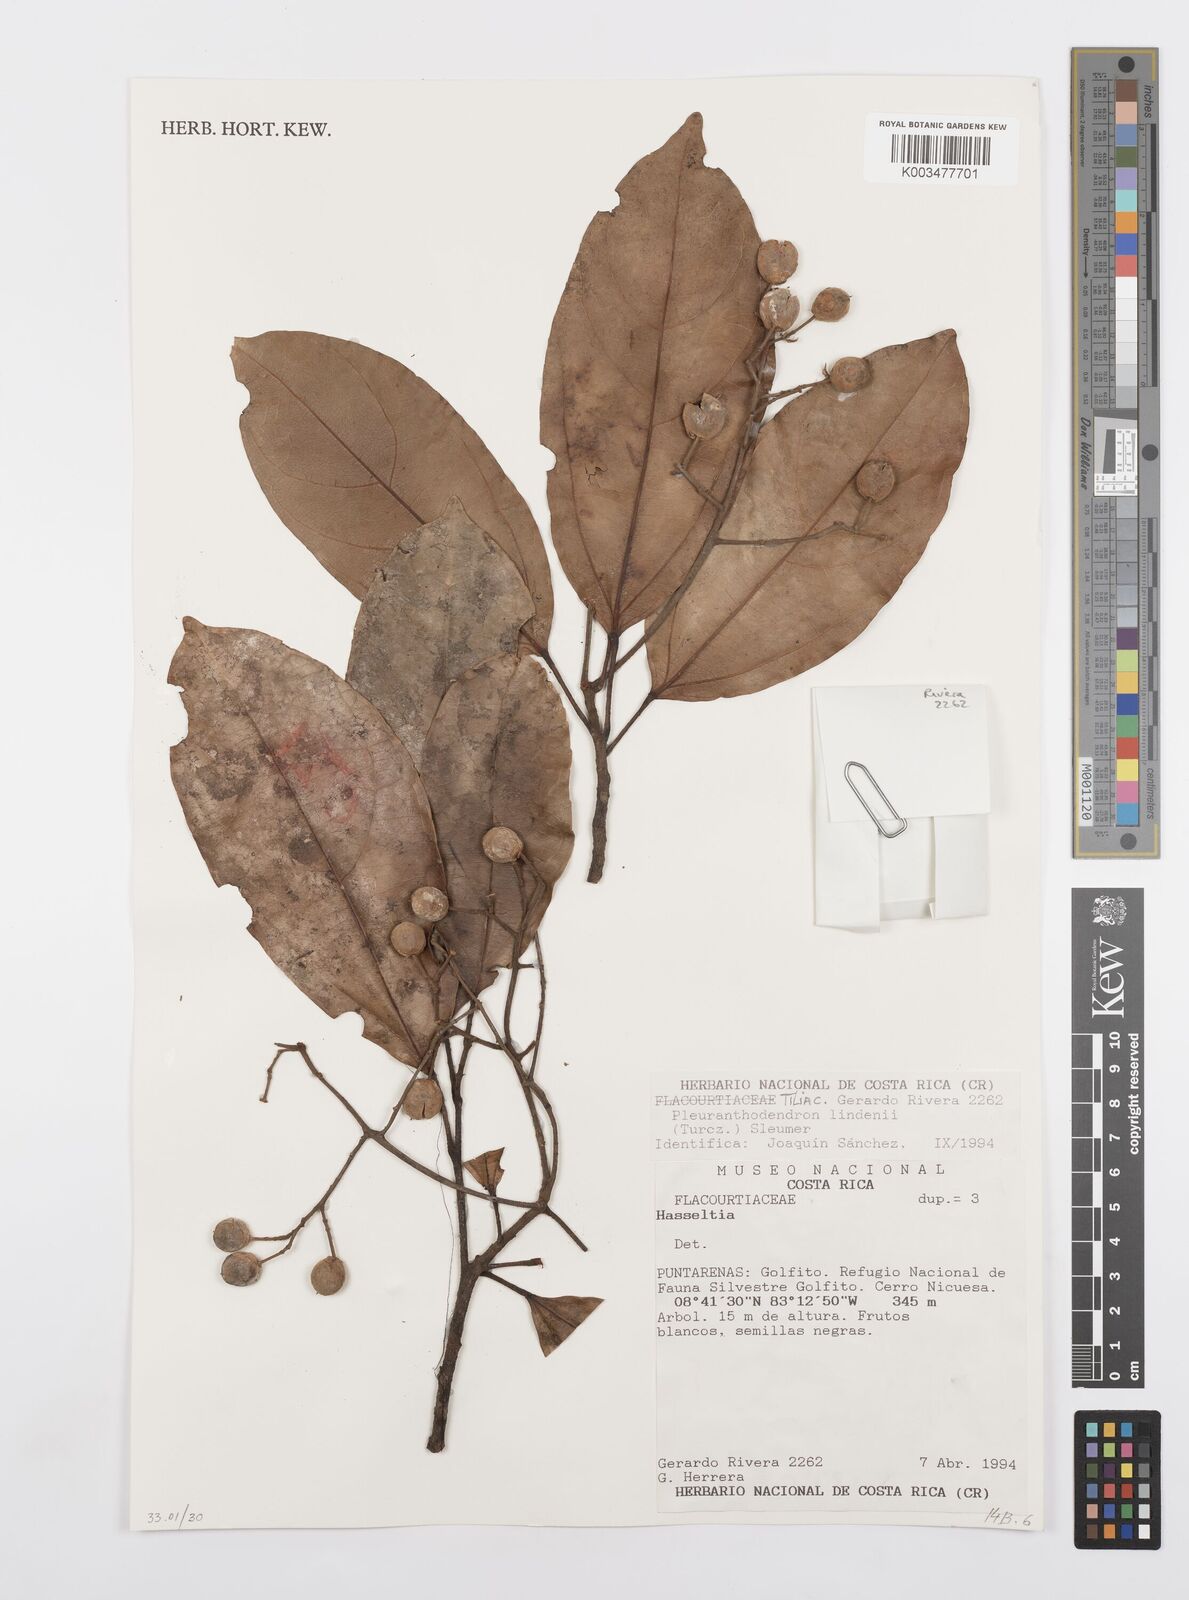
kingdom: Plantae
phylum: Tracheophyta
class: Magnoliopsida
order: Malpighiales
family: Salicaceae
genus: Pleuranthodendron
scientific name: Pleuranthodendron lindenii
